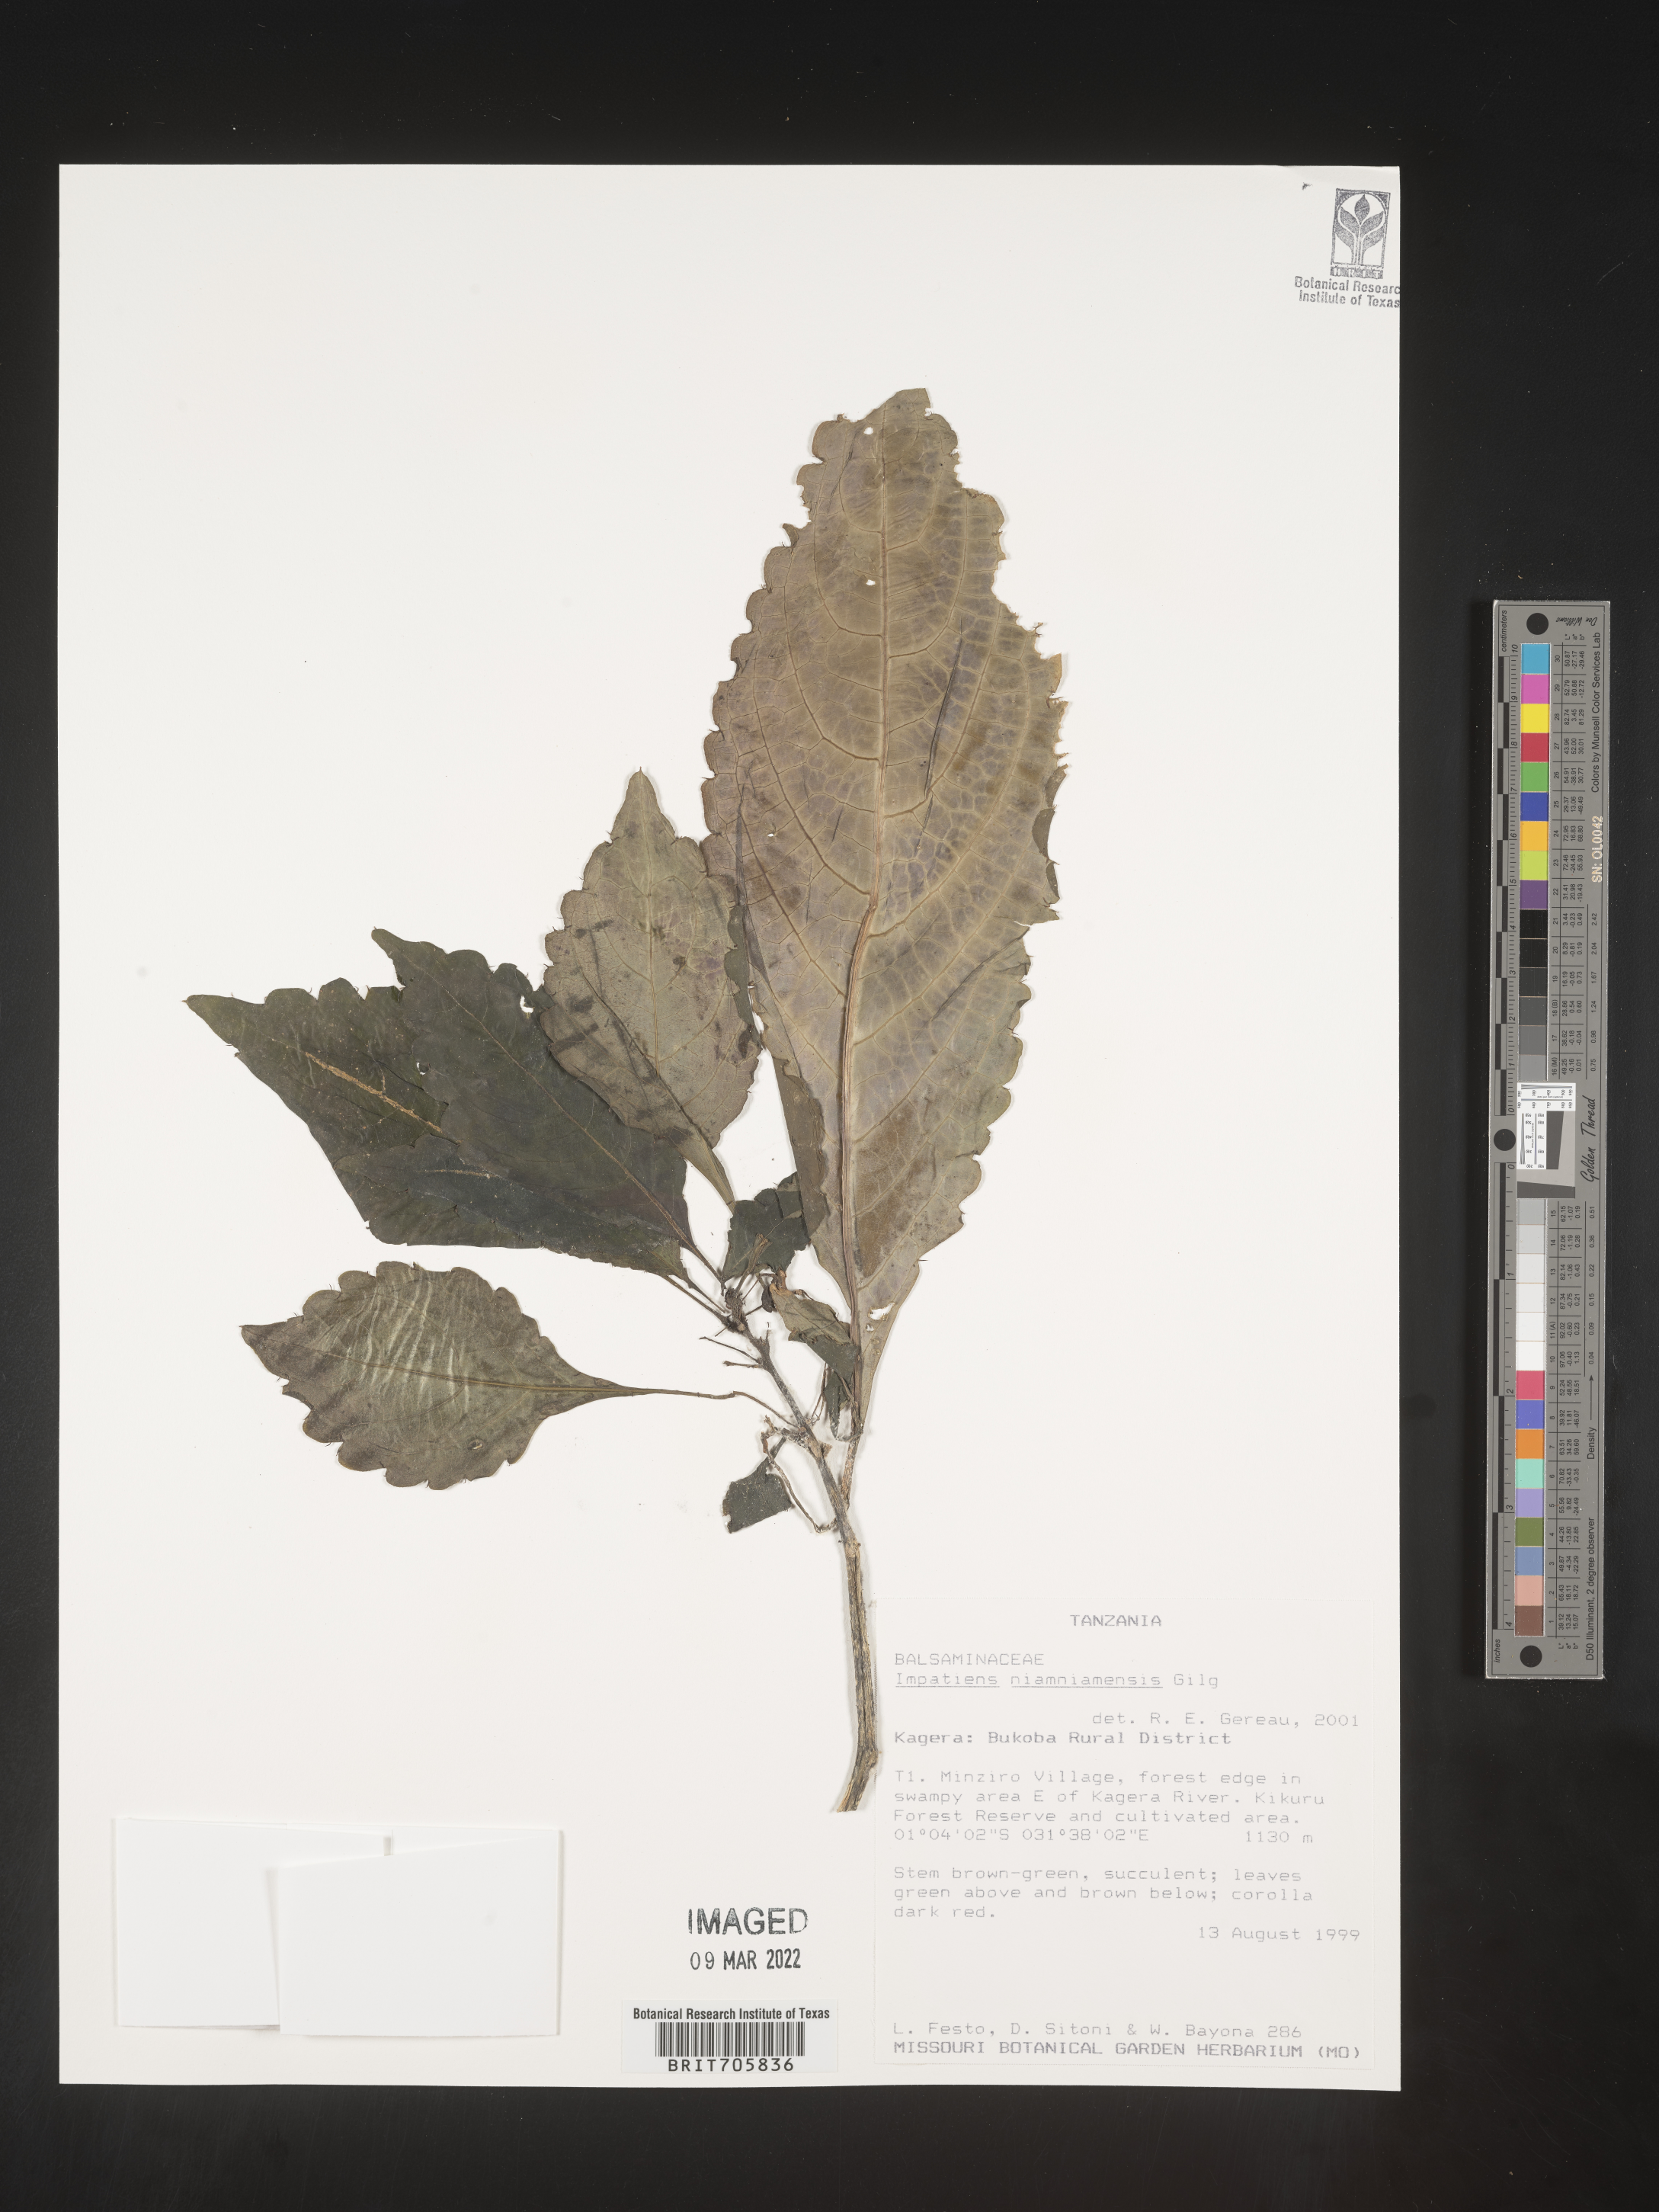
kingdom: Plantae
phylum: Tracheophyta
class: Magnoliopsida
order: Ericales
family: Balsaminaceae
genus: Impatiens
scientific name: Impatiens
